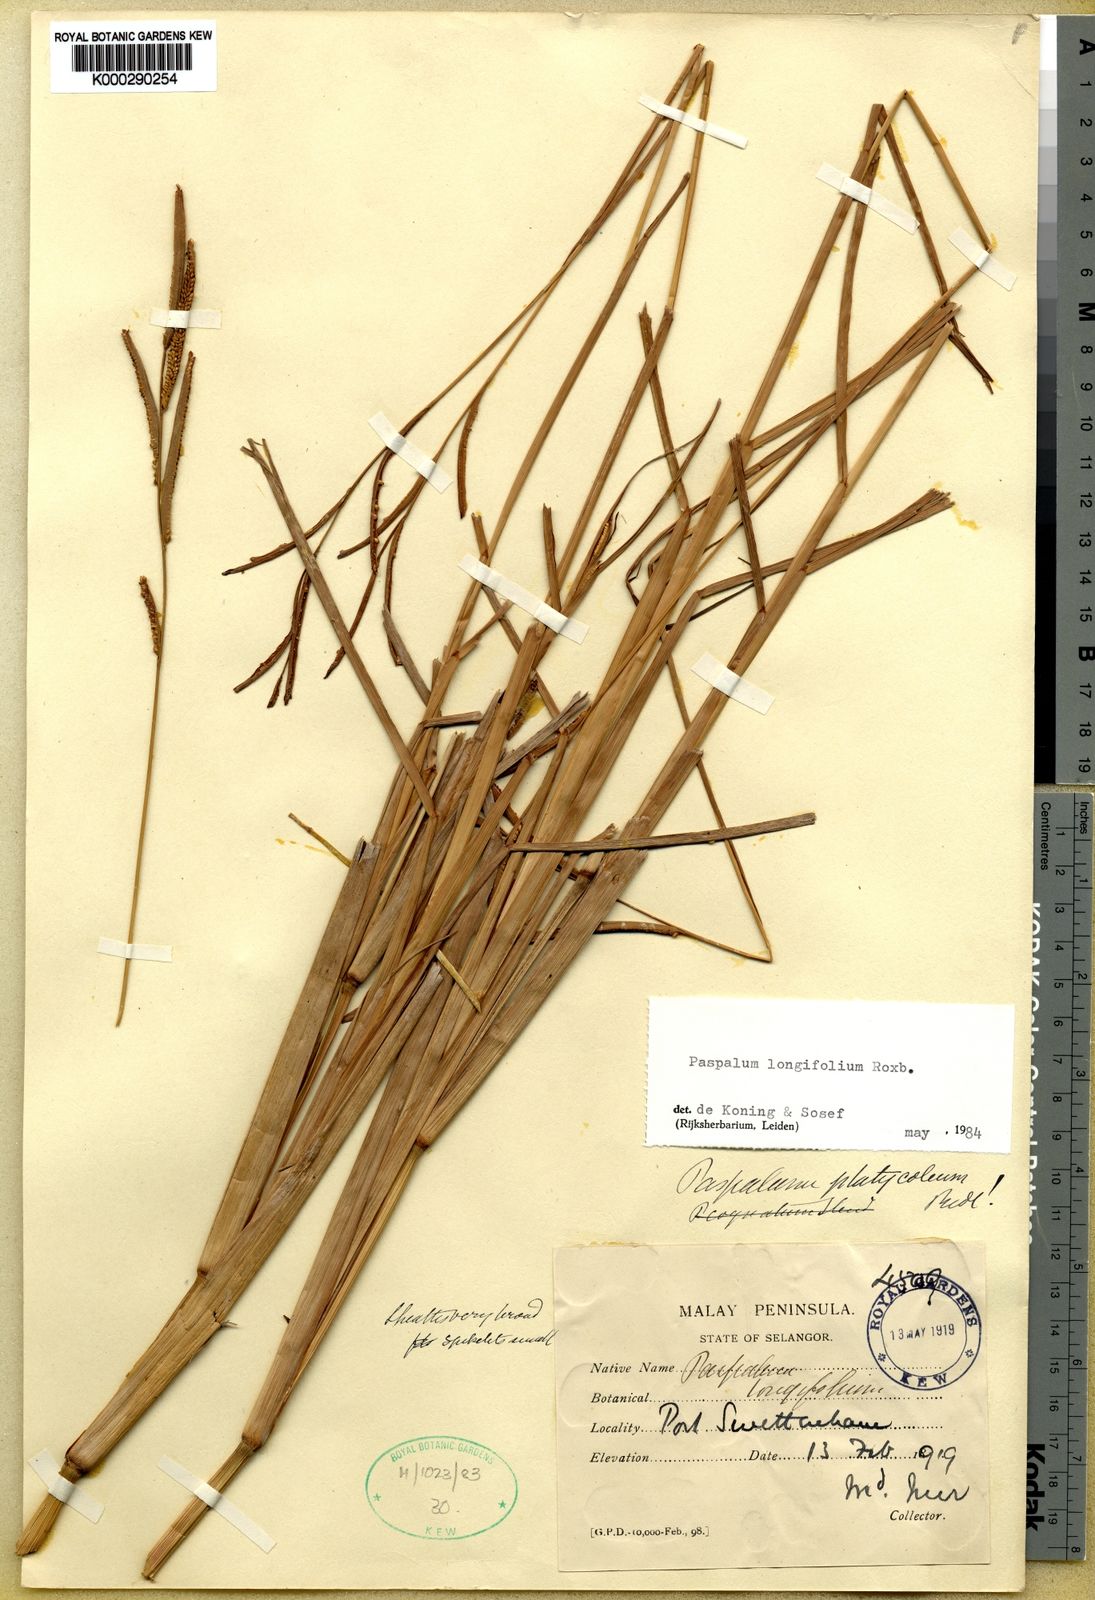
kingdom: Plantae
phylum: Tracheophyta
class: Liliopsida
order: Poales
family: Poaceae
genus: Paspalum
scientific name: Paspalum sumatrense
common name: Long-leaved paspalum
